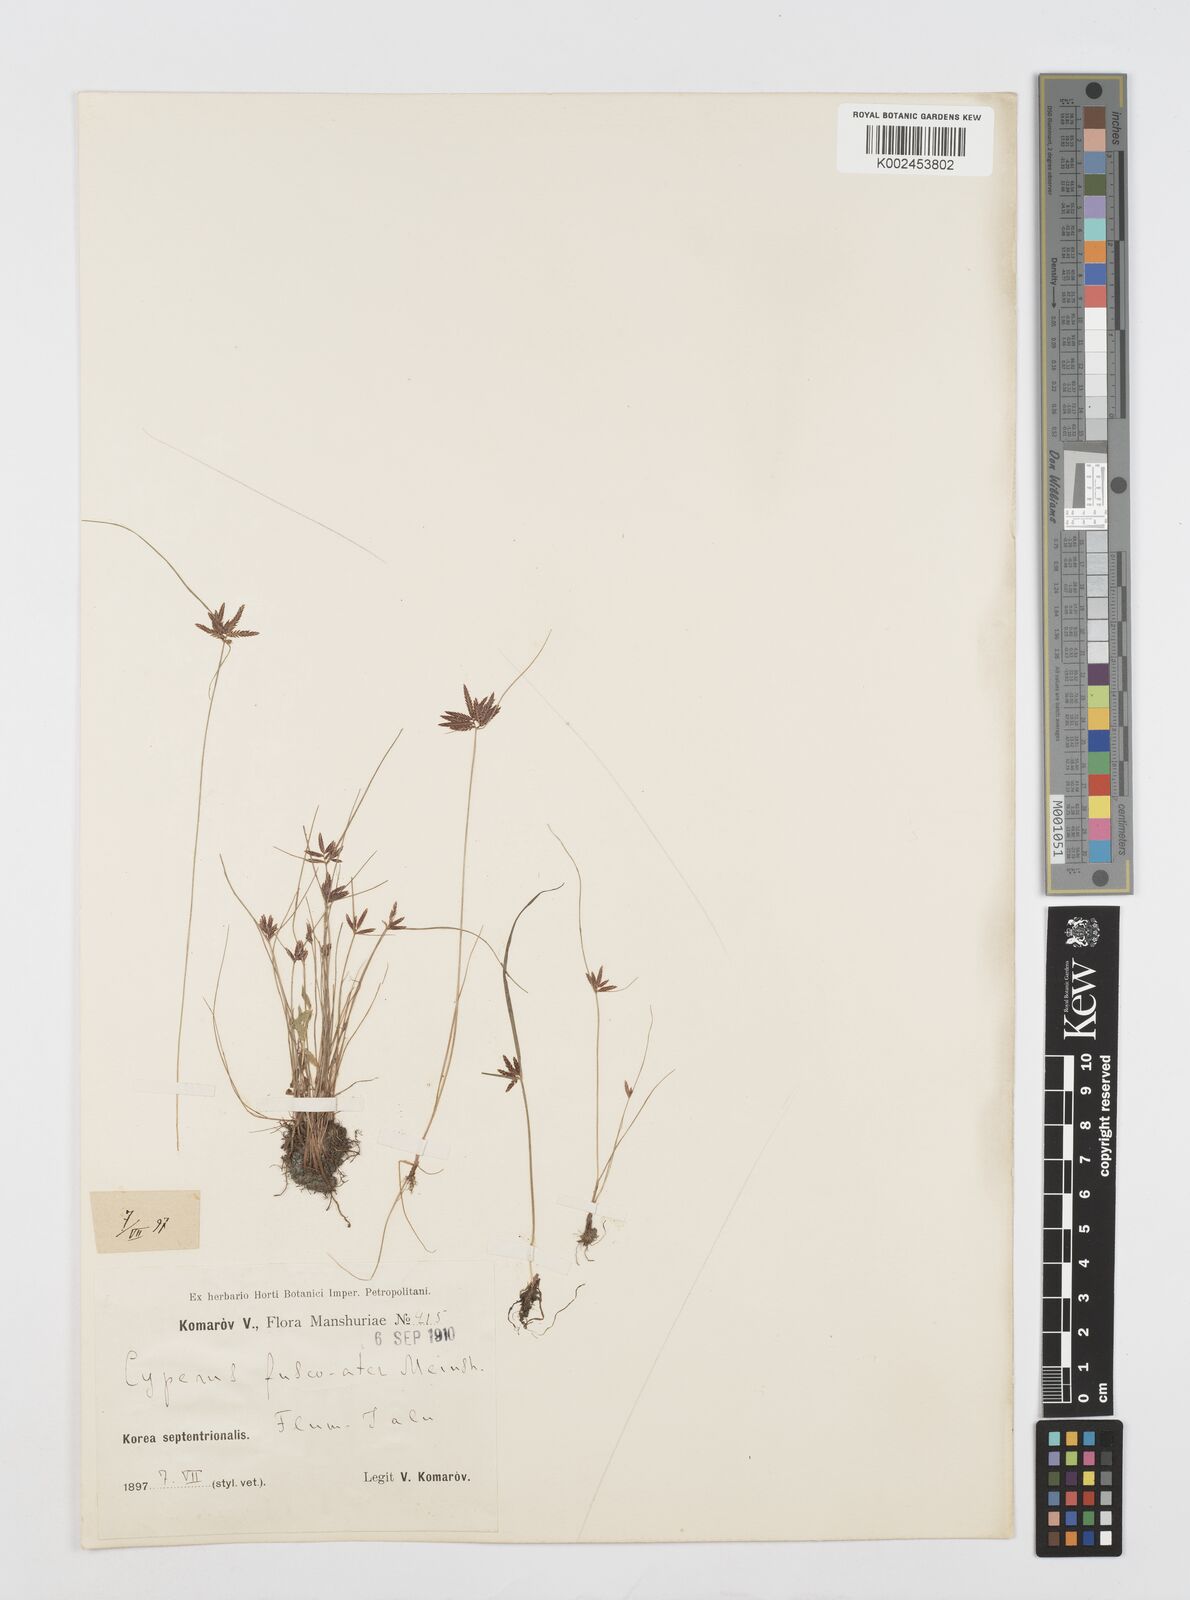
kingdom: Plantae
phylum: Tracheophyta
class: Liliopsida
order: Poales
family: Cyperaceae
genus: Cyperus
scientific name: Cyperus flavidus
